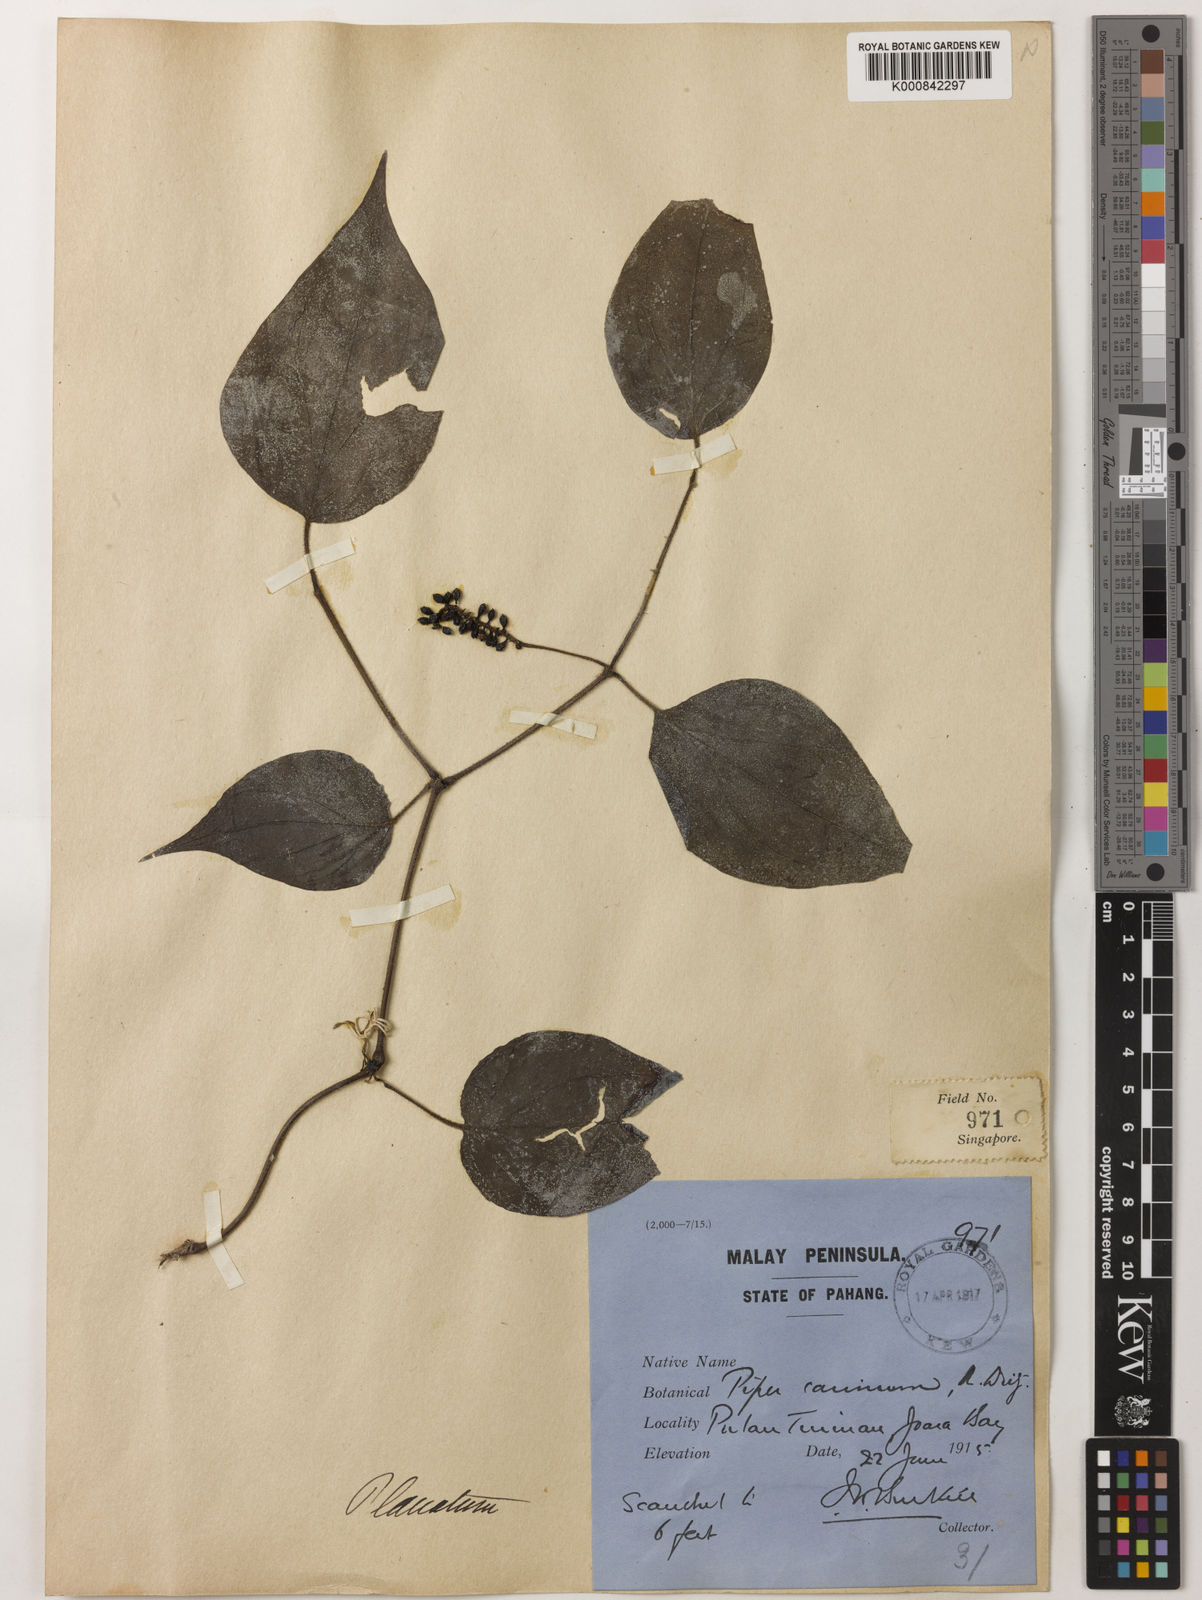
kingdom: Plantae
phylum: Tracheophyta
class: Magnoliopsida
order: Piperales
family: Piperaceae
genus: Piper
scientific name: Piper lanatum
